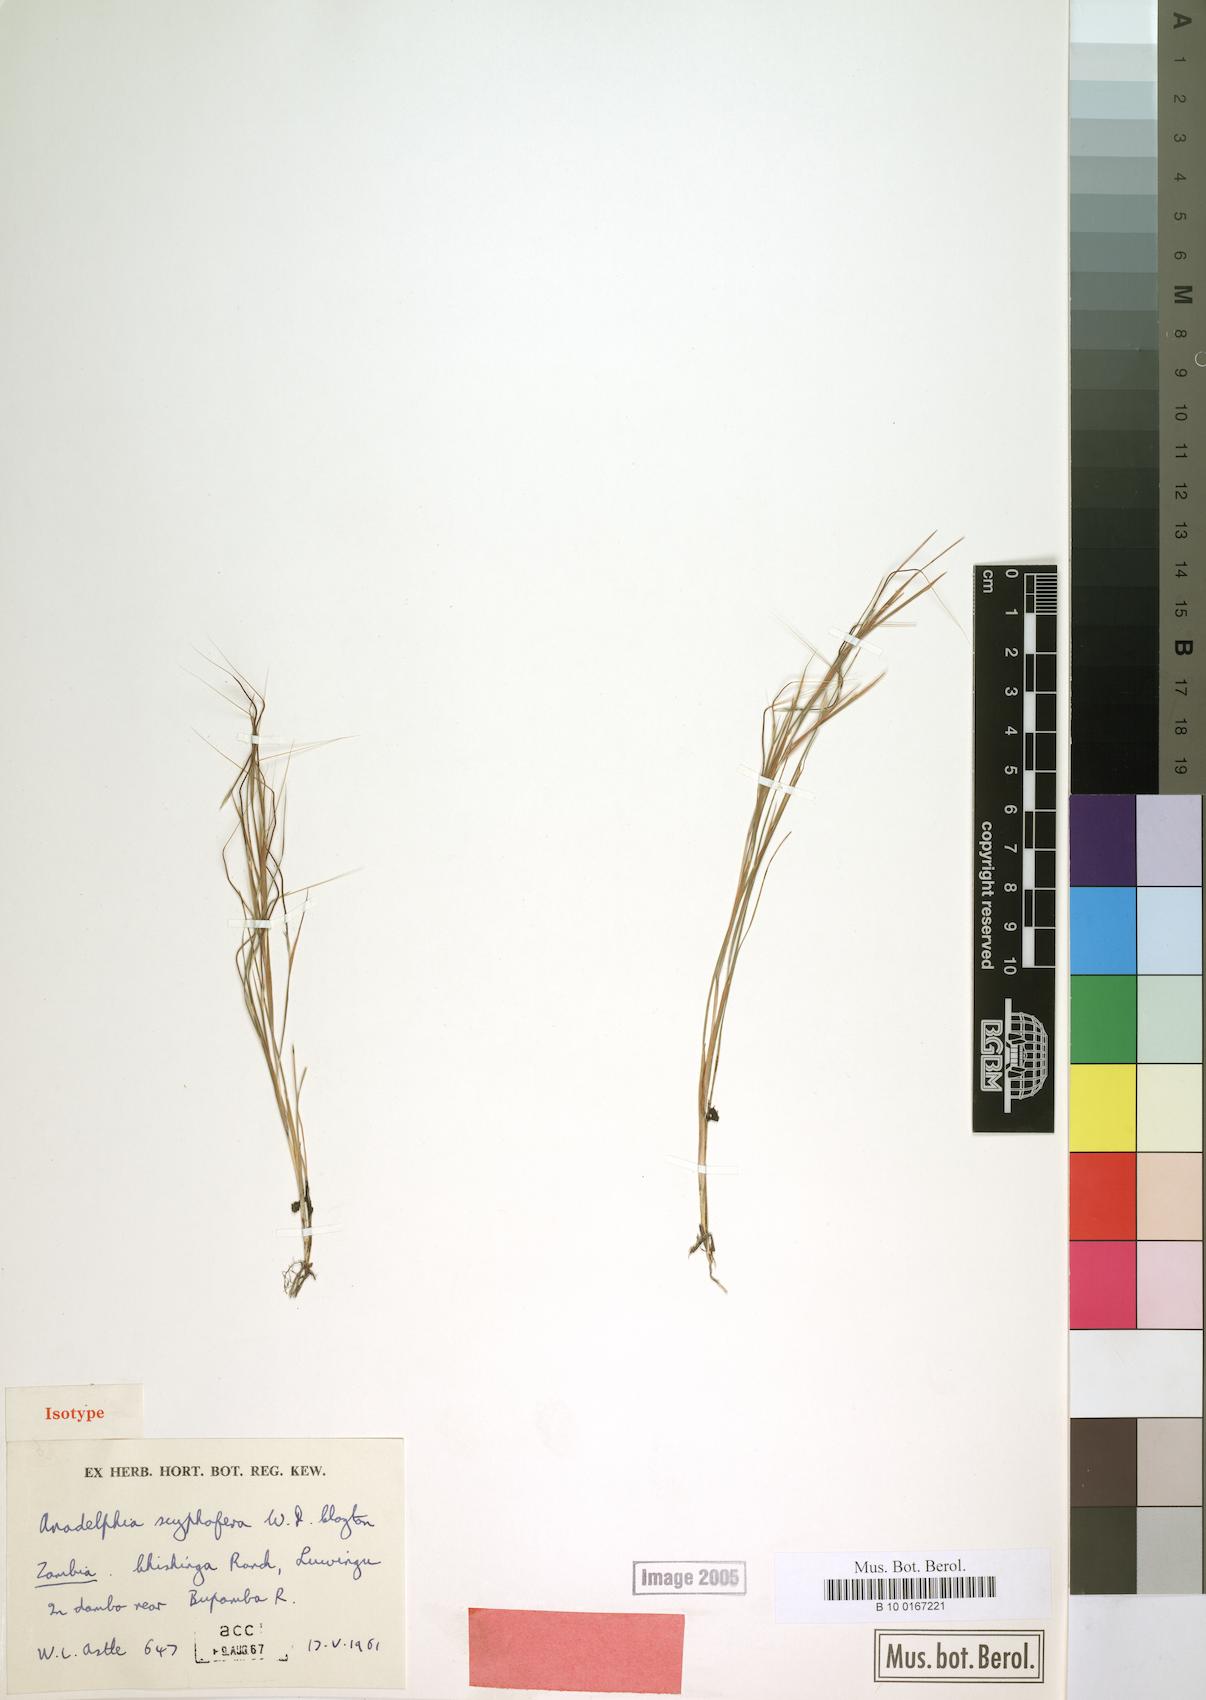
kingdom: Plantae
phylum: Tracheophyta
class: Liliopsida
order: Poales
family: Poaceae
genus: Anadelphia
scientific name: Anadelphia scyphofera
